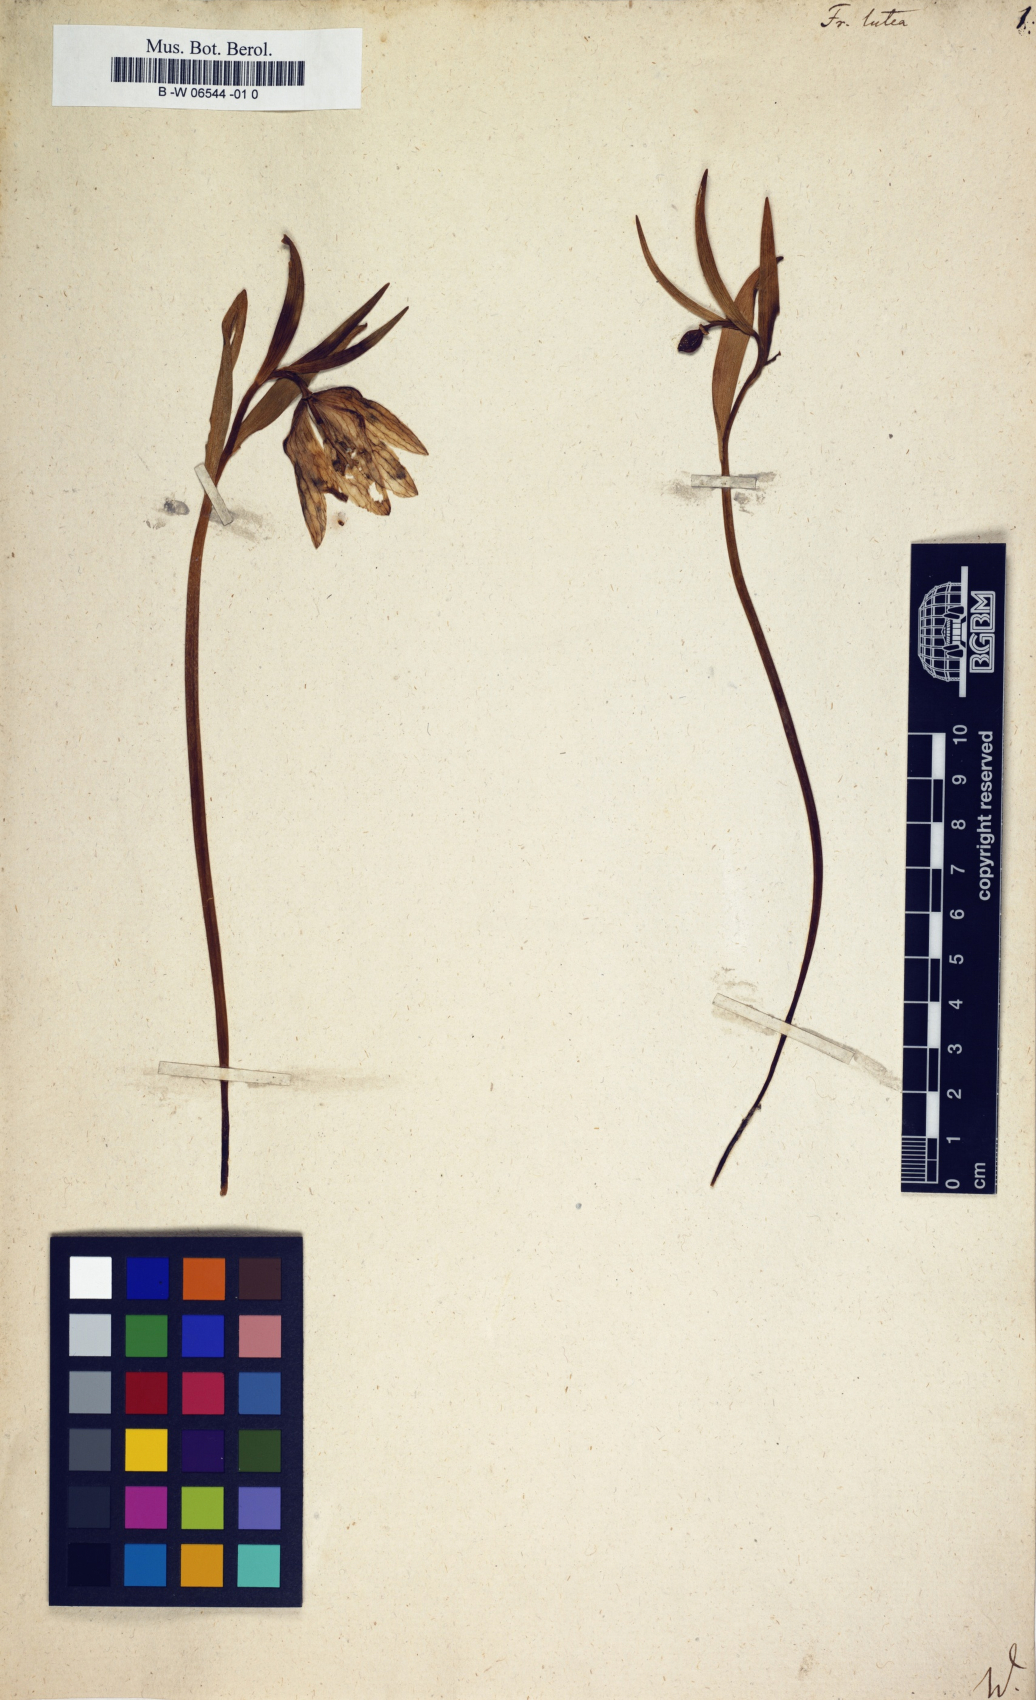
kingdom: Plantae
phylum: Tracheophyta
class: Liliopsida
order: Liliales
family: Liliaceae
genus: Fritillaria
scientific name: Fritillaria
